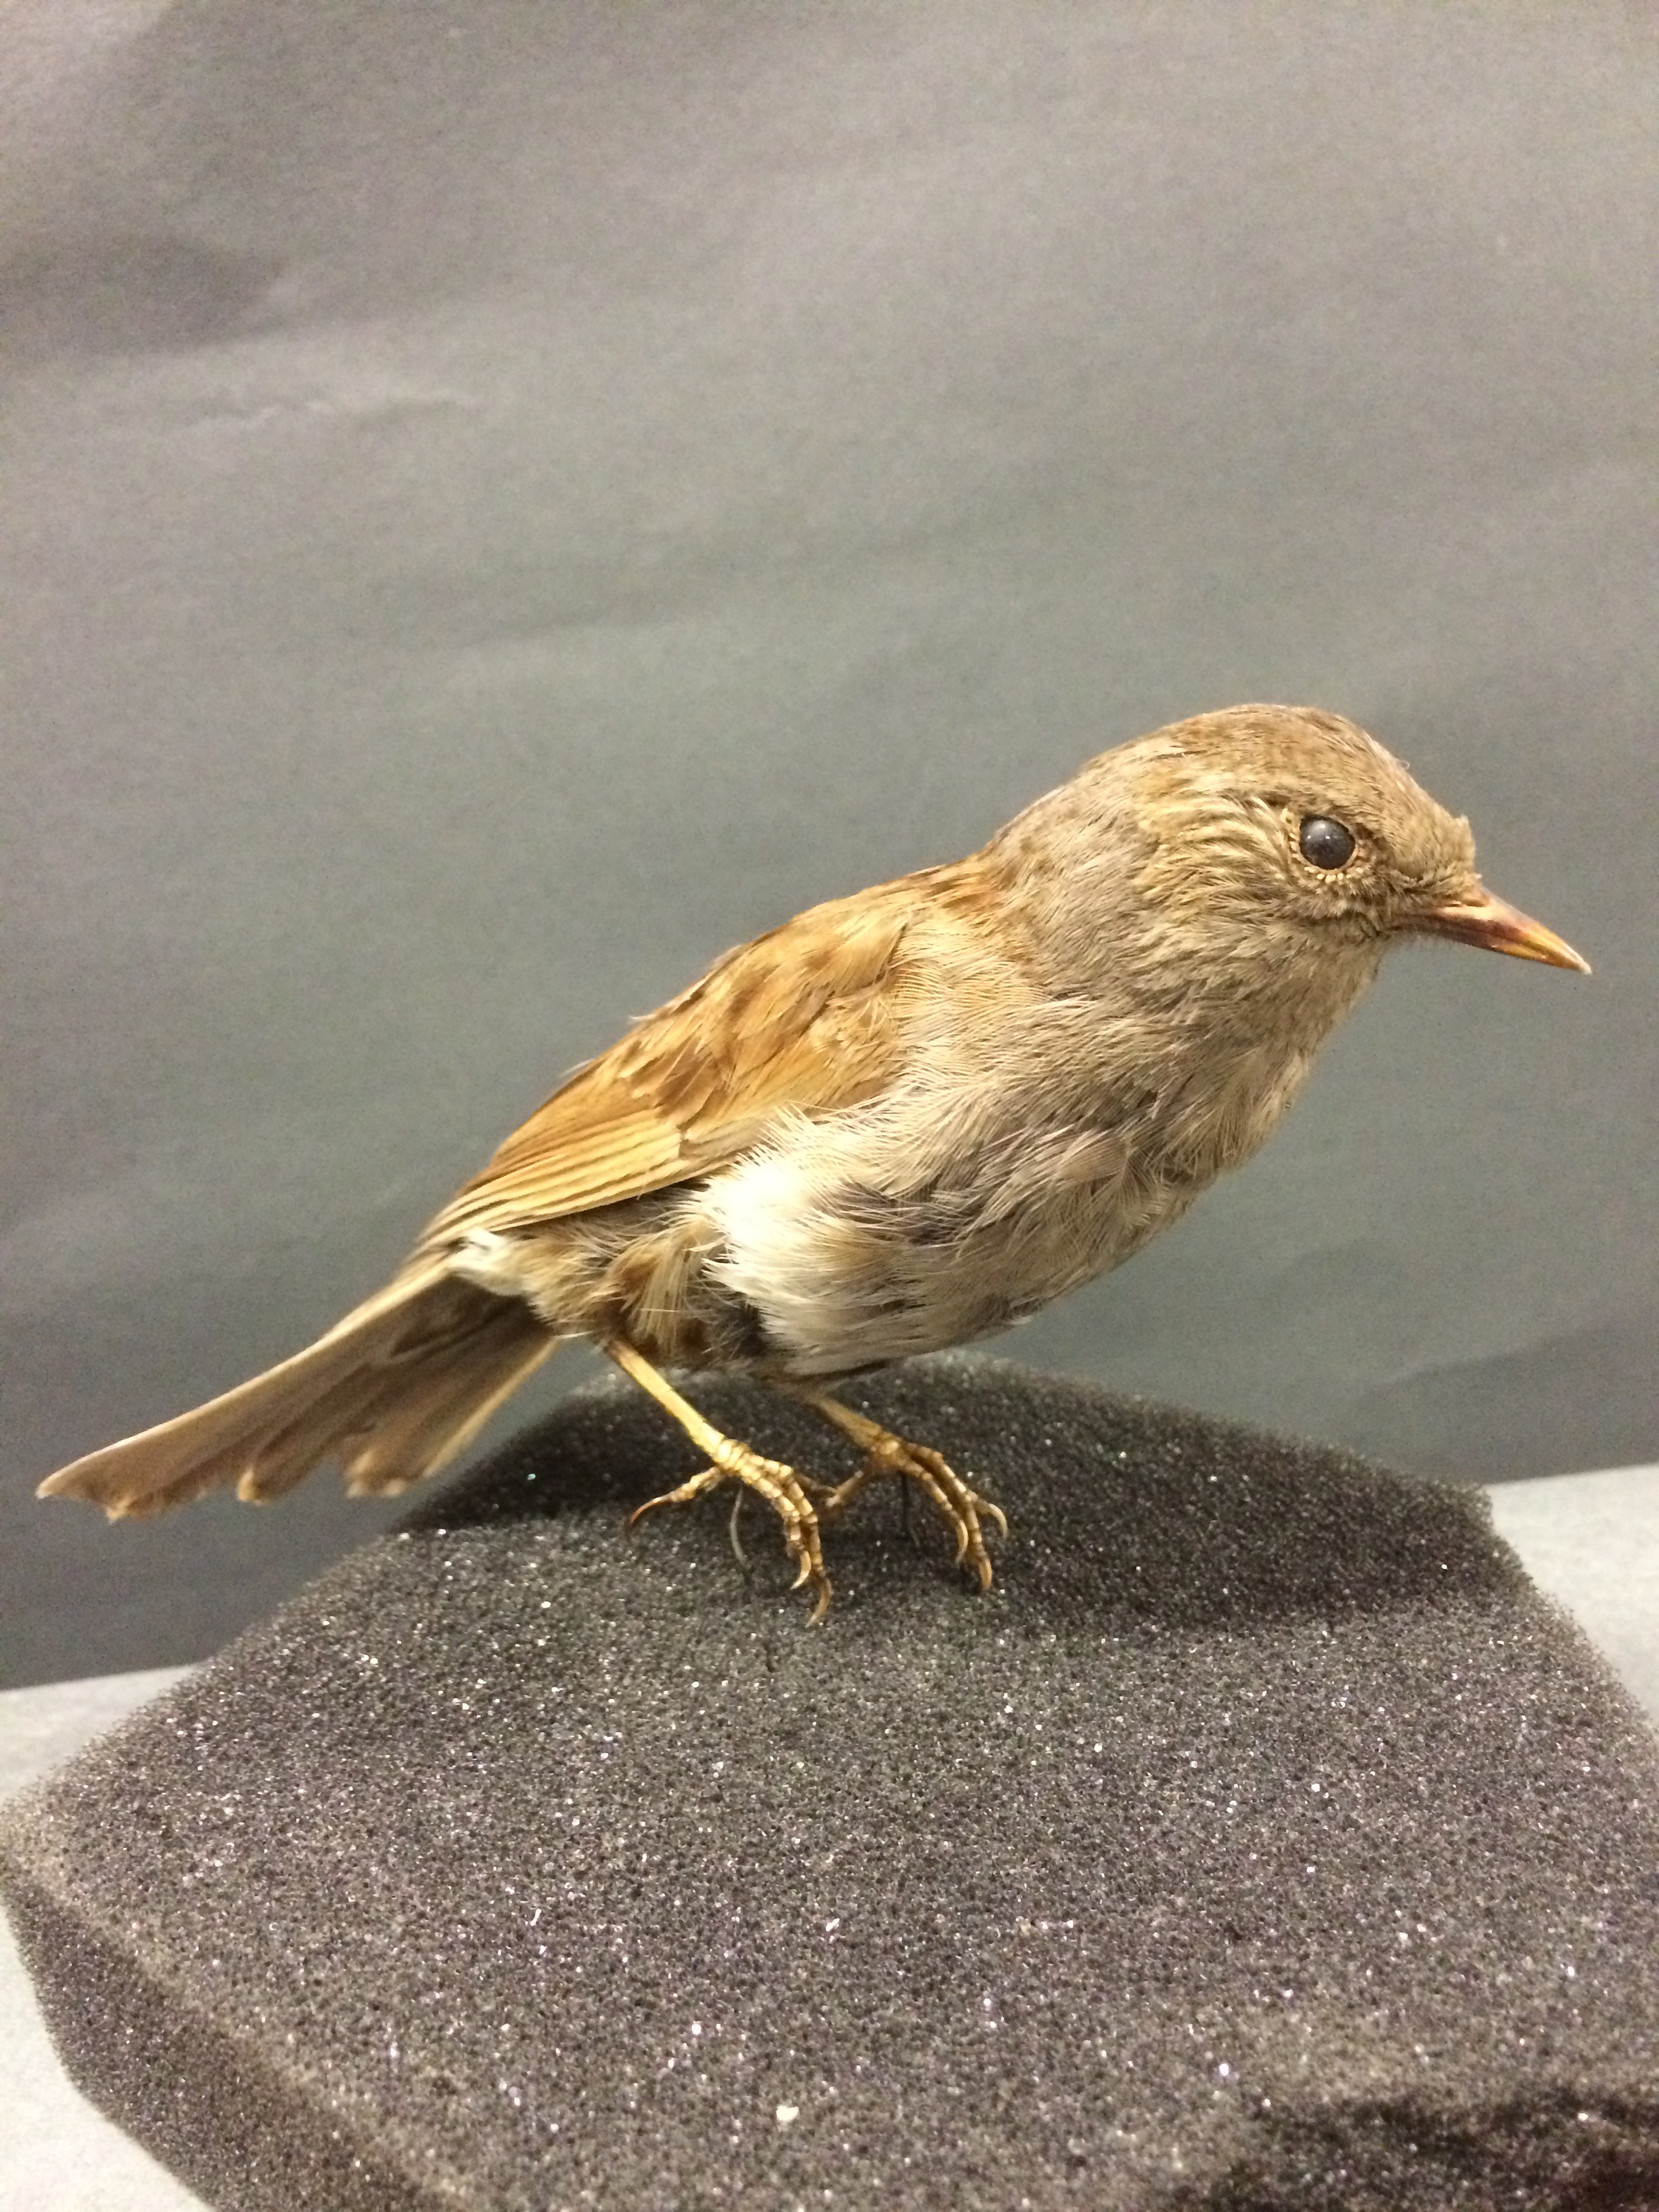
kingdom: Animalia
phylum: Chordata
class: Aves
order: Passeriformes
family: Prunellidae
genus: Prunella
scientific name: Prunella modularis
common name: Dunnock
